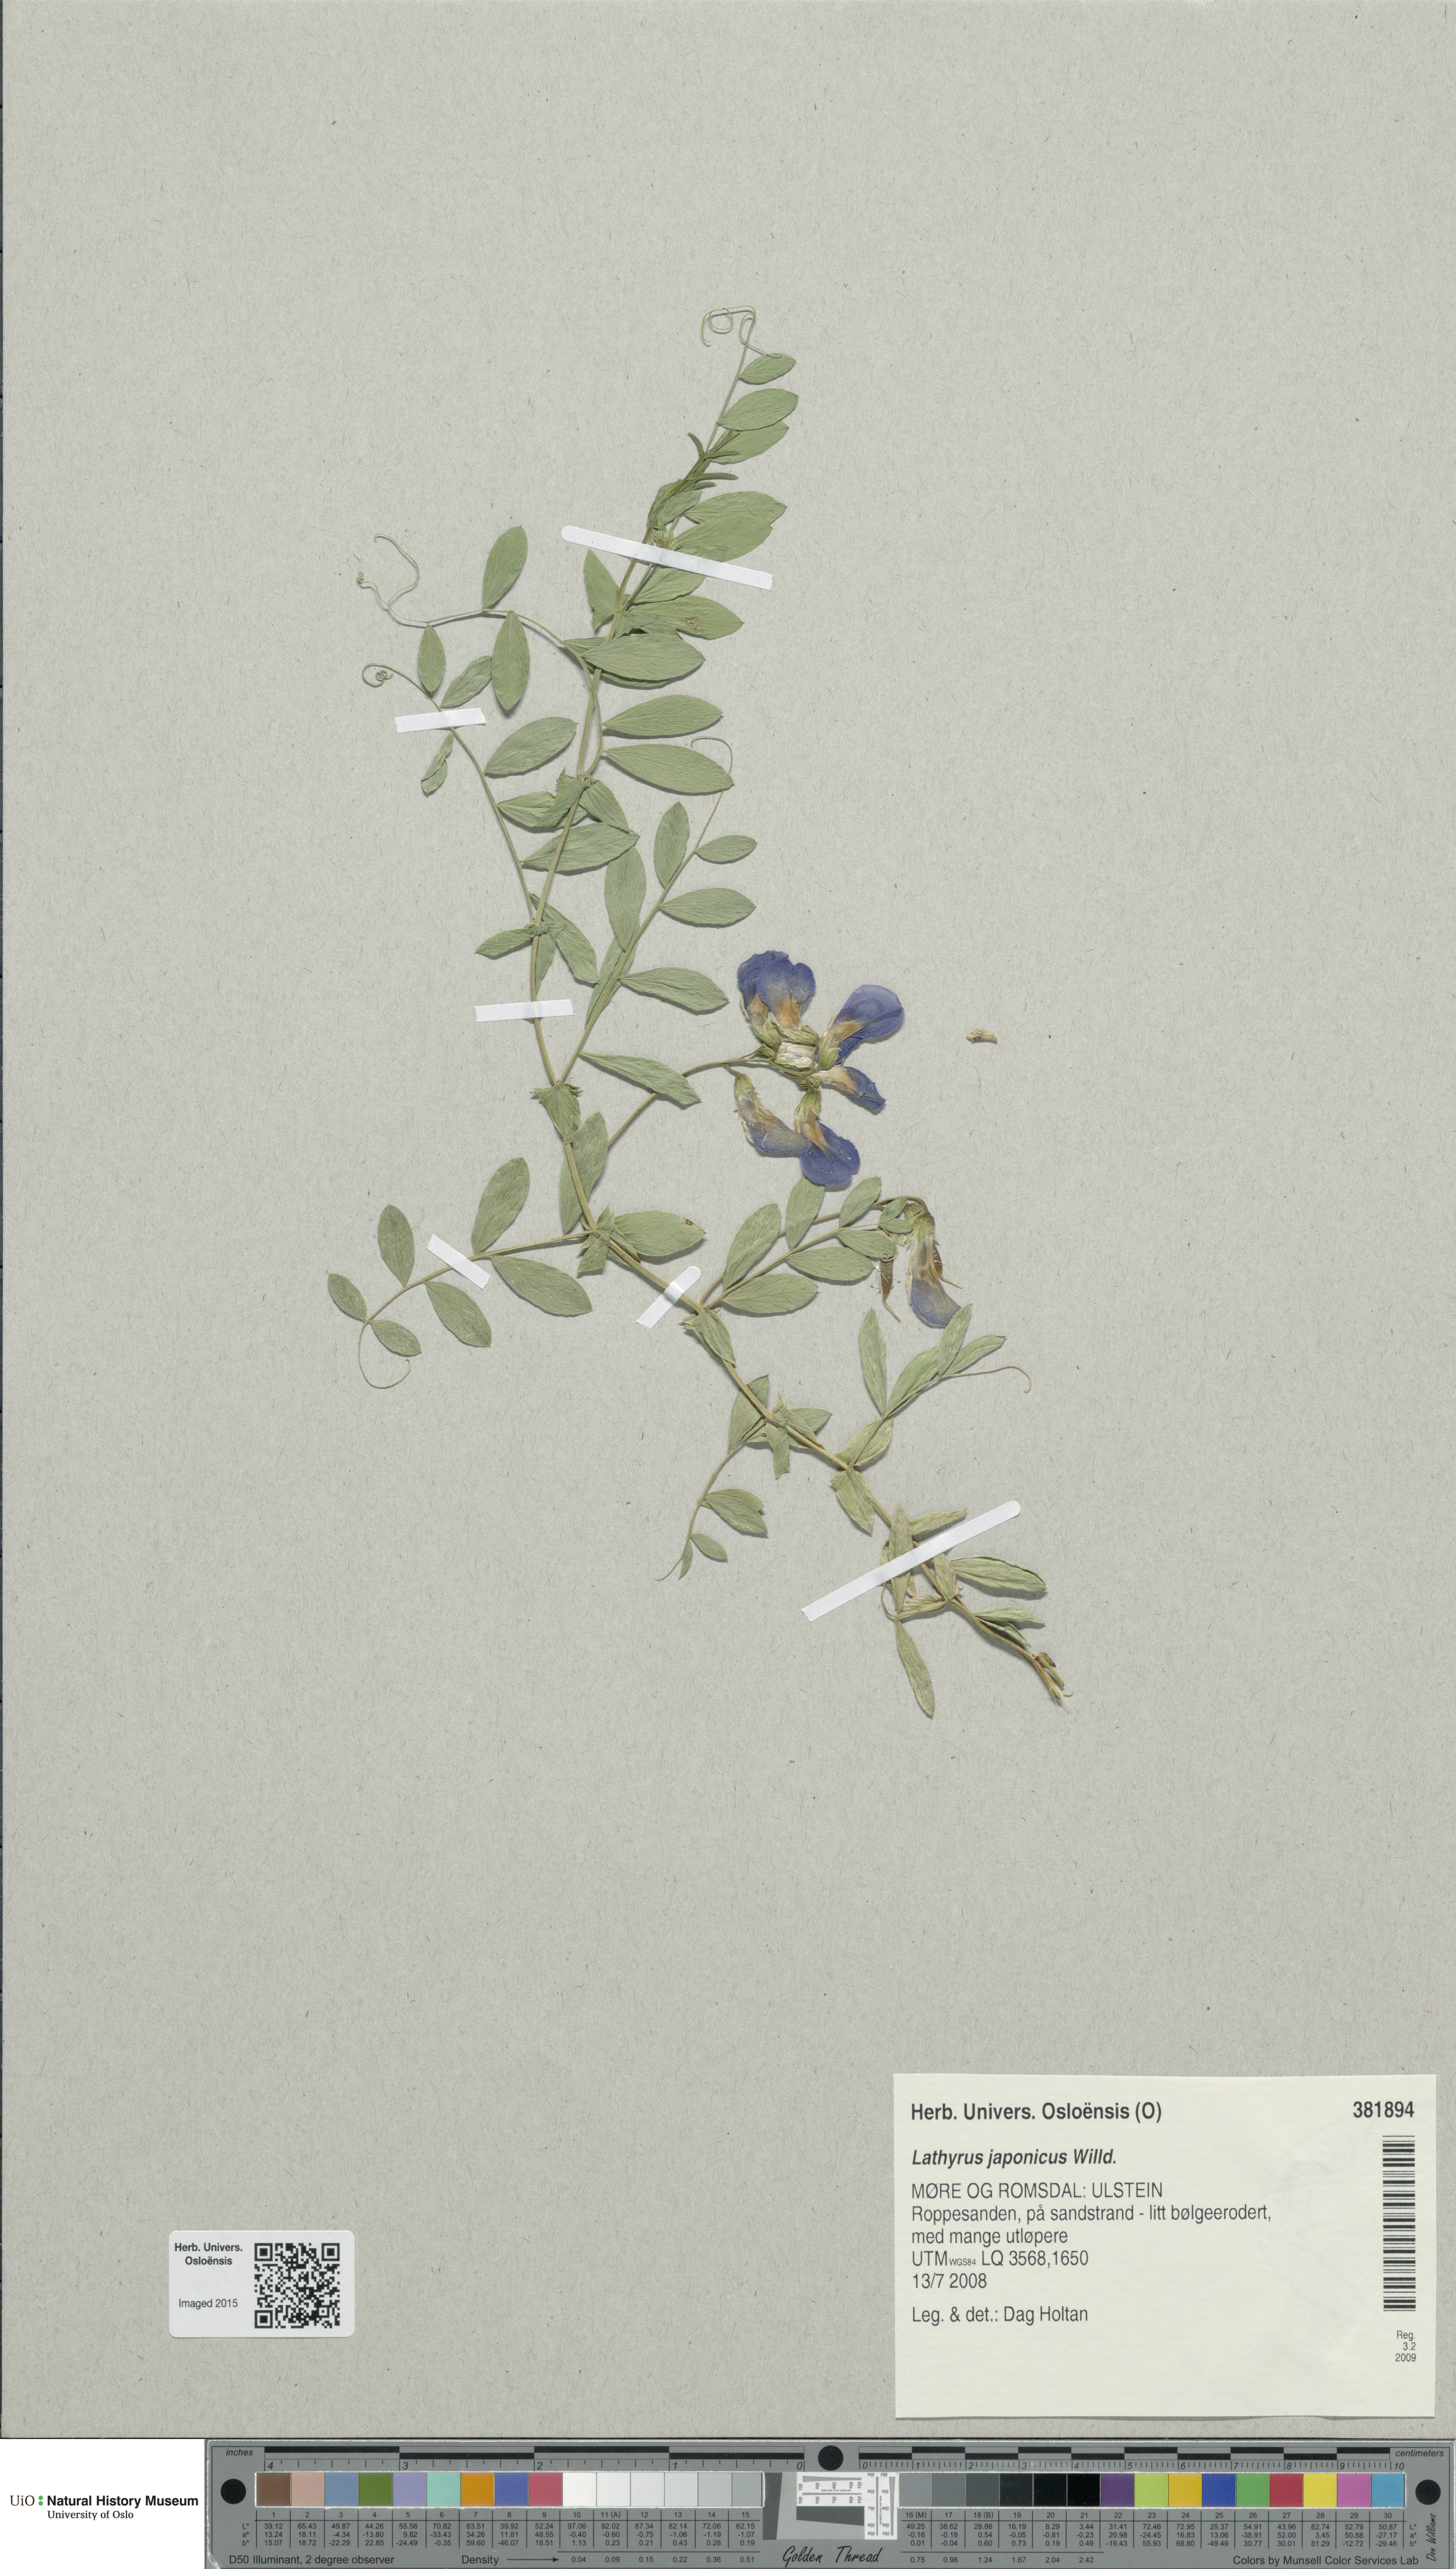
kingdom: Plantae
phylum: Tracheophyta
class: Magnoliopsida
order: Fabales
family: Fabaceae
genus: Lathyrus
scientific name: Lathyrus japonicus
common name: Sea pea
